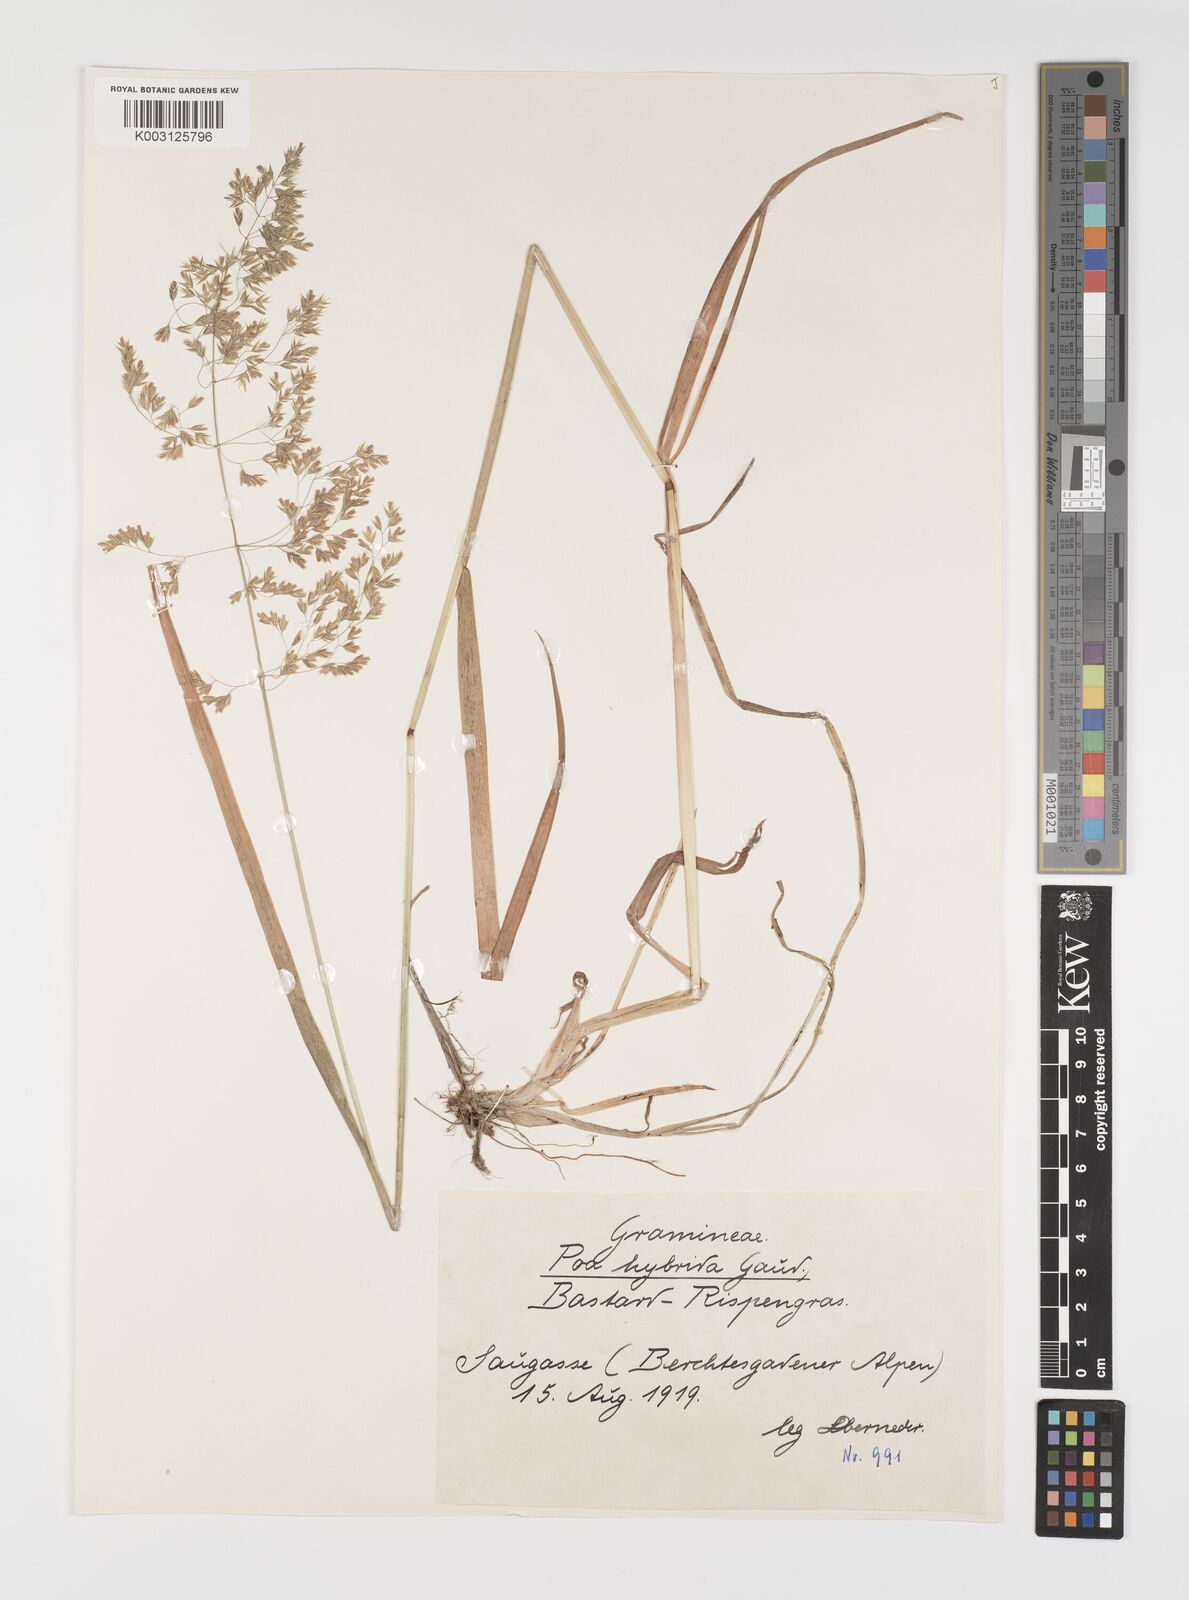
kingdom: Plantae
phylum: Tracheophyta
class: Liliopsida
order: Poales
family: Poaceae
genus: Poa
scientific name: Poa hybrida
